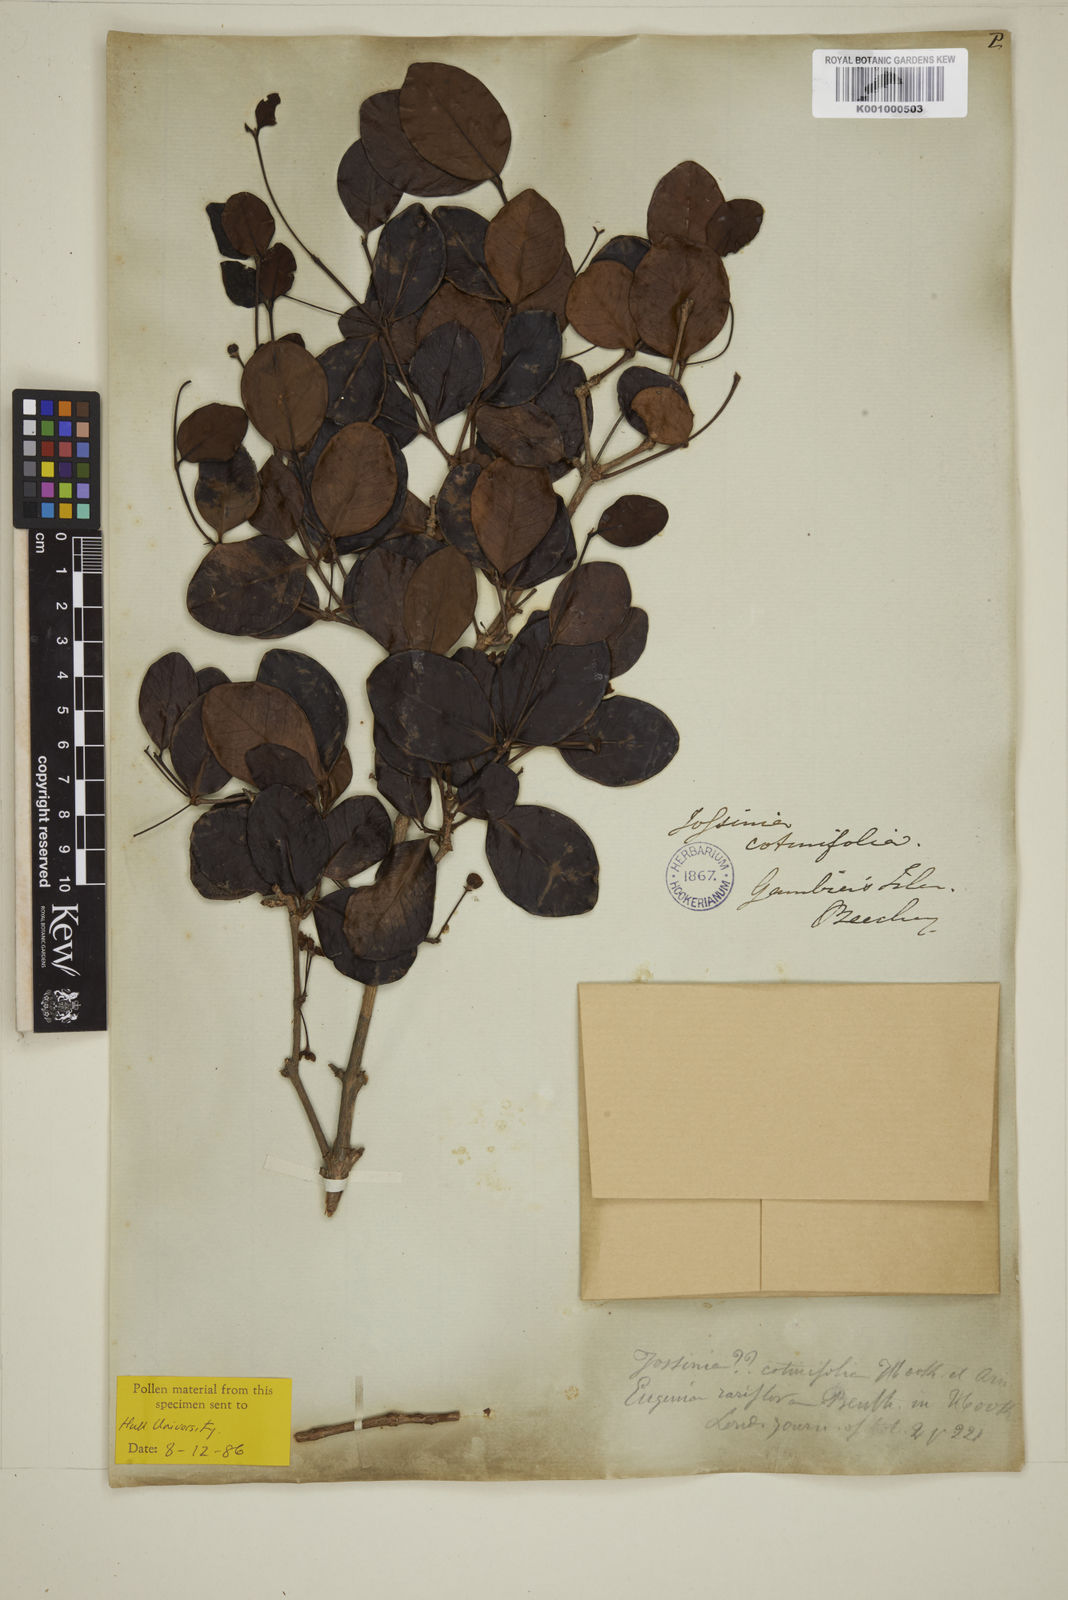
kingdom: Plantae
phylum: Tracheophyta
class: Magnoliopsida
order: Myrtales
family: Myrtaceae
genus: Eugenia
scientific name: Eugenia uniflora
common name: Surinam cherry
